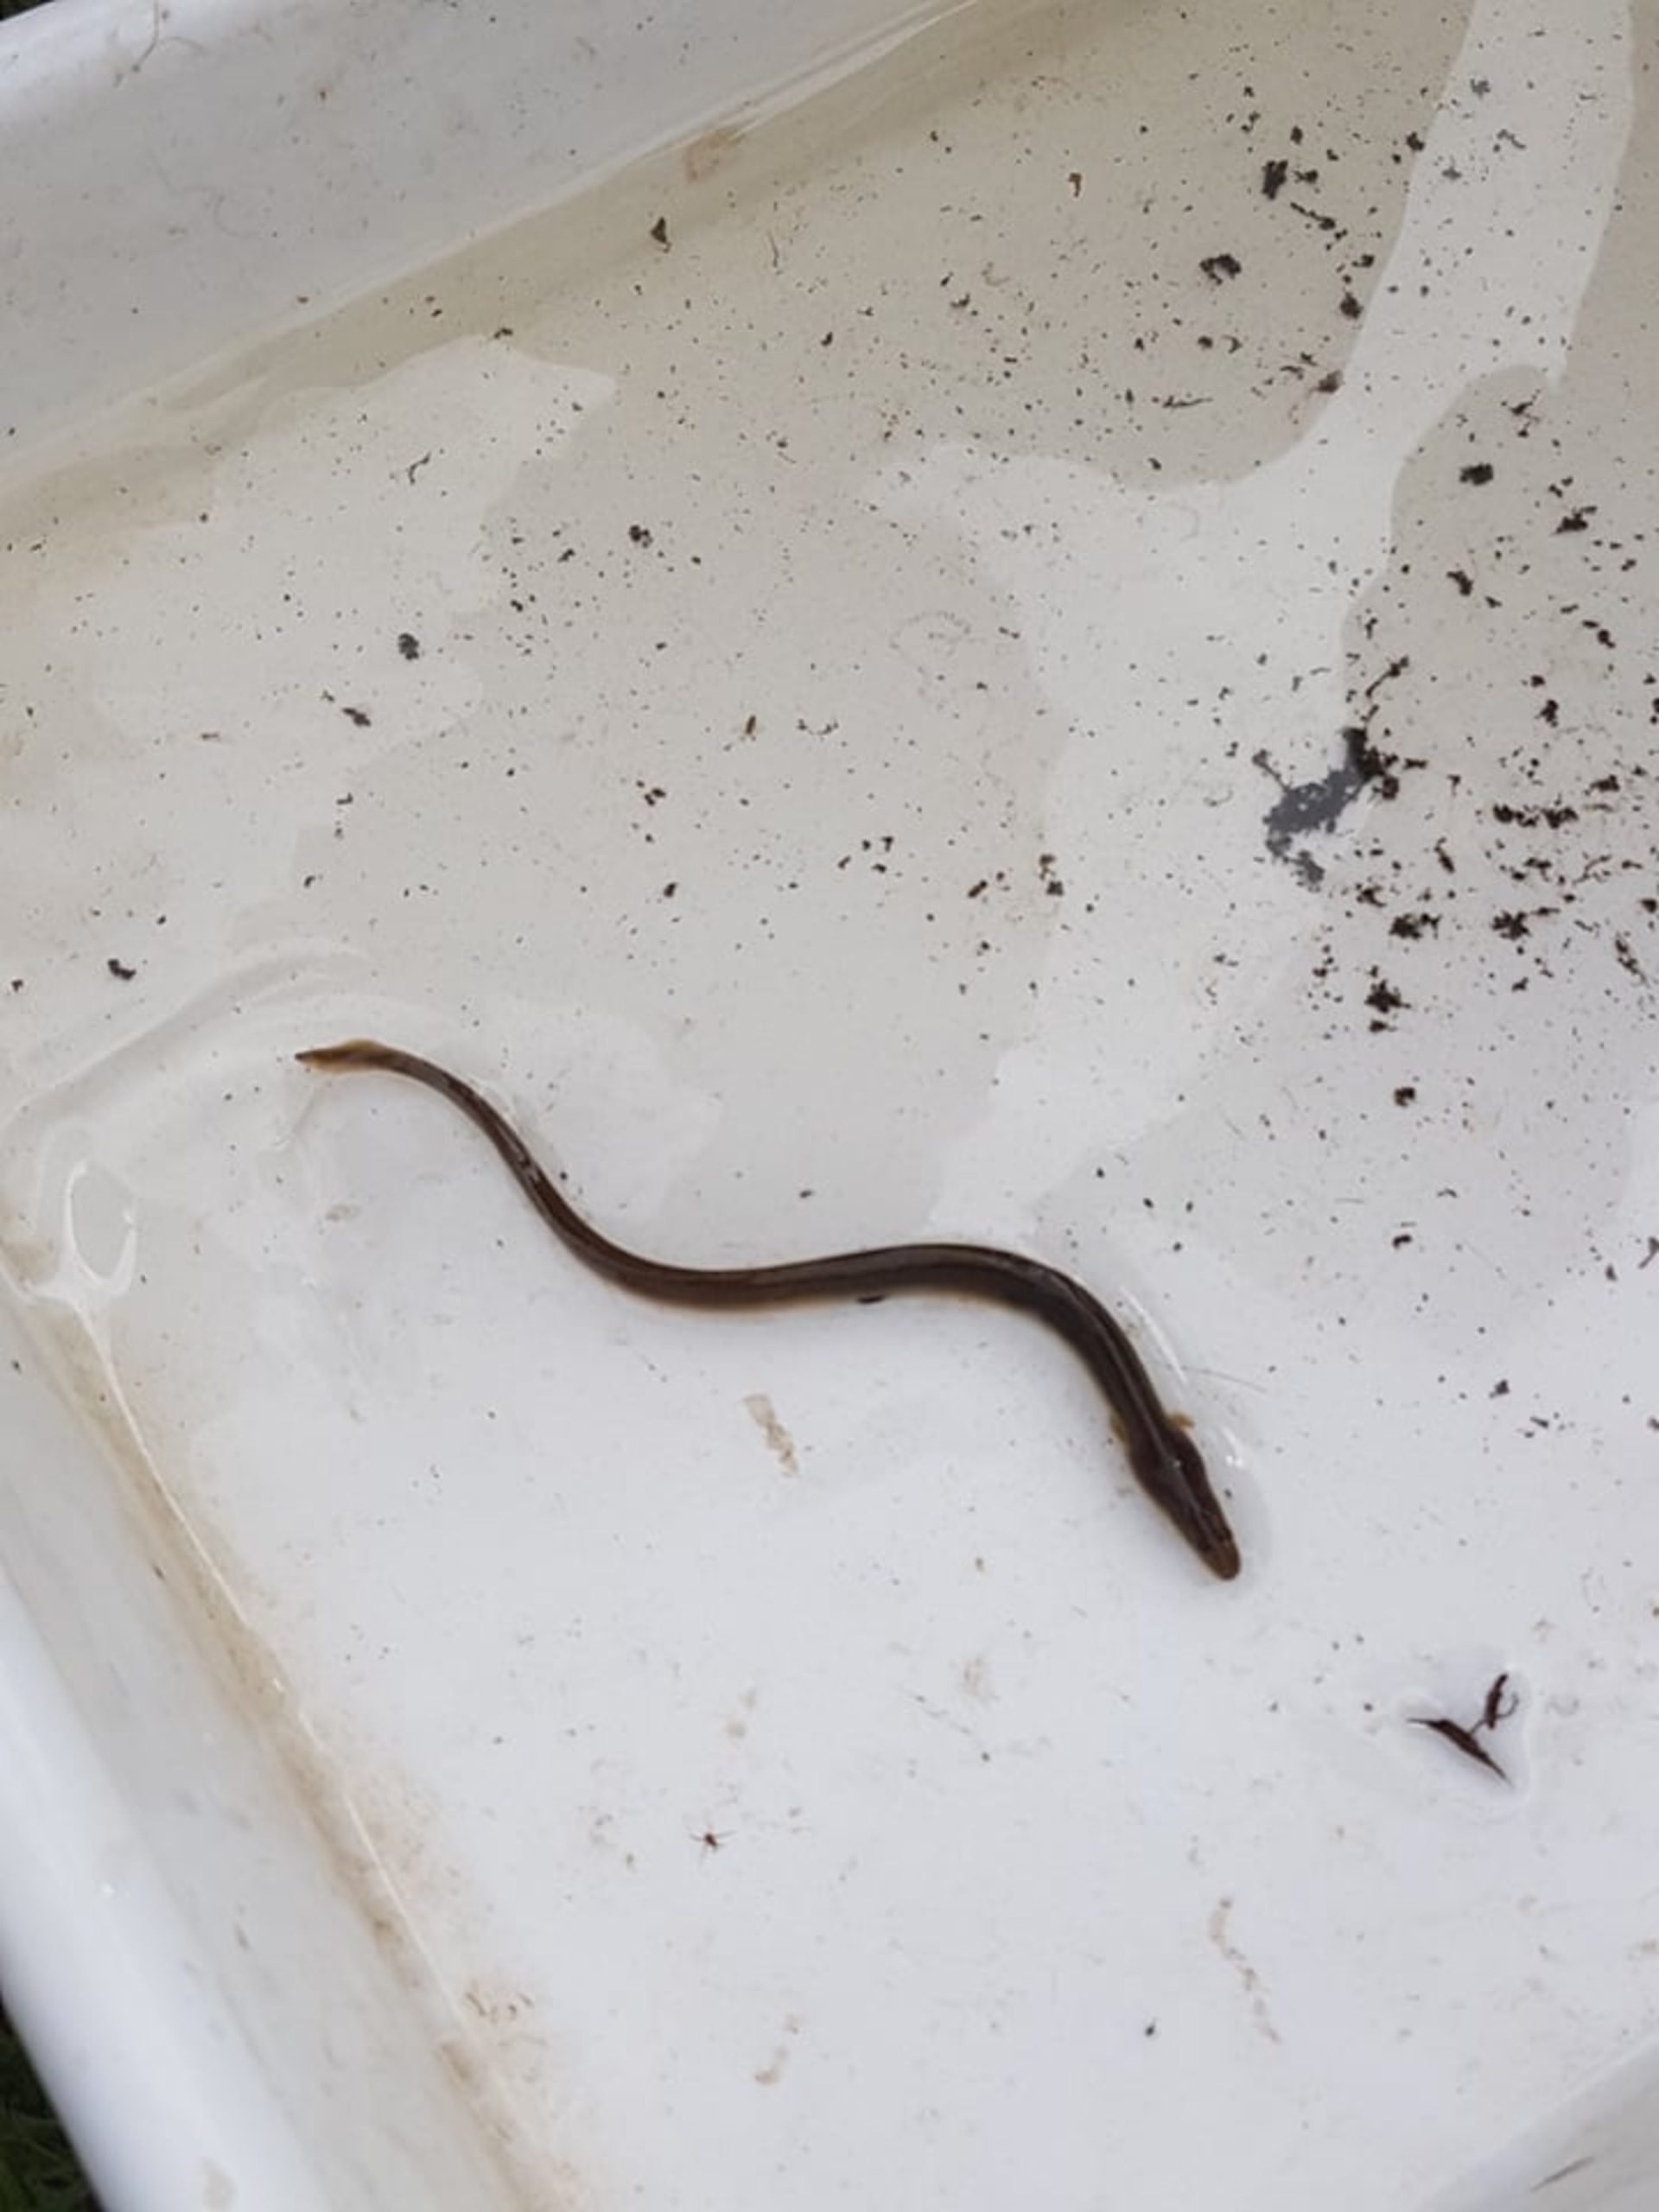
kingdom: Animalia
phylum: Chordata
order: Anguilliformes
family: Anguillidae
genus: Anguilla
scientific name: Anguilla anguilla
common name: Europæisk ål
